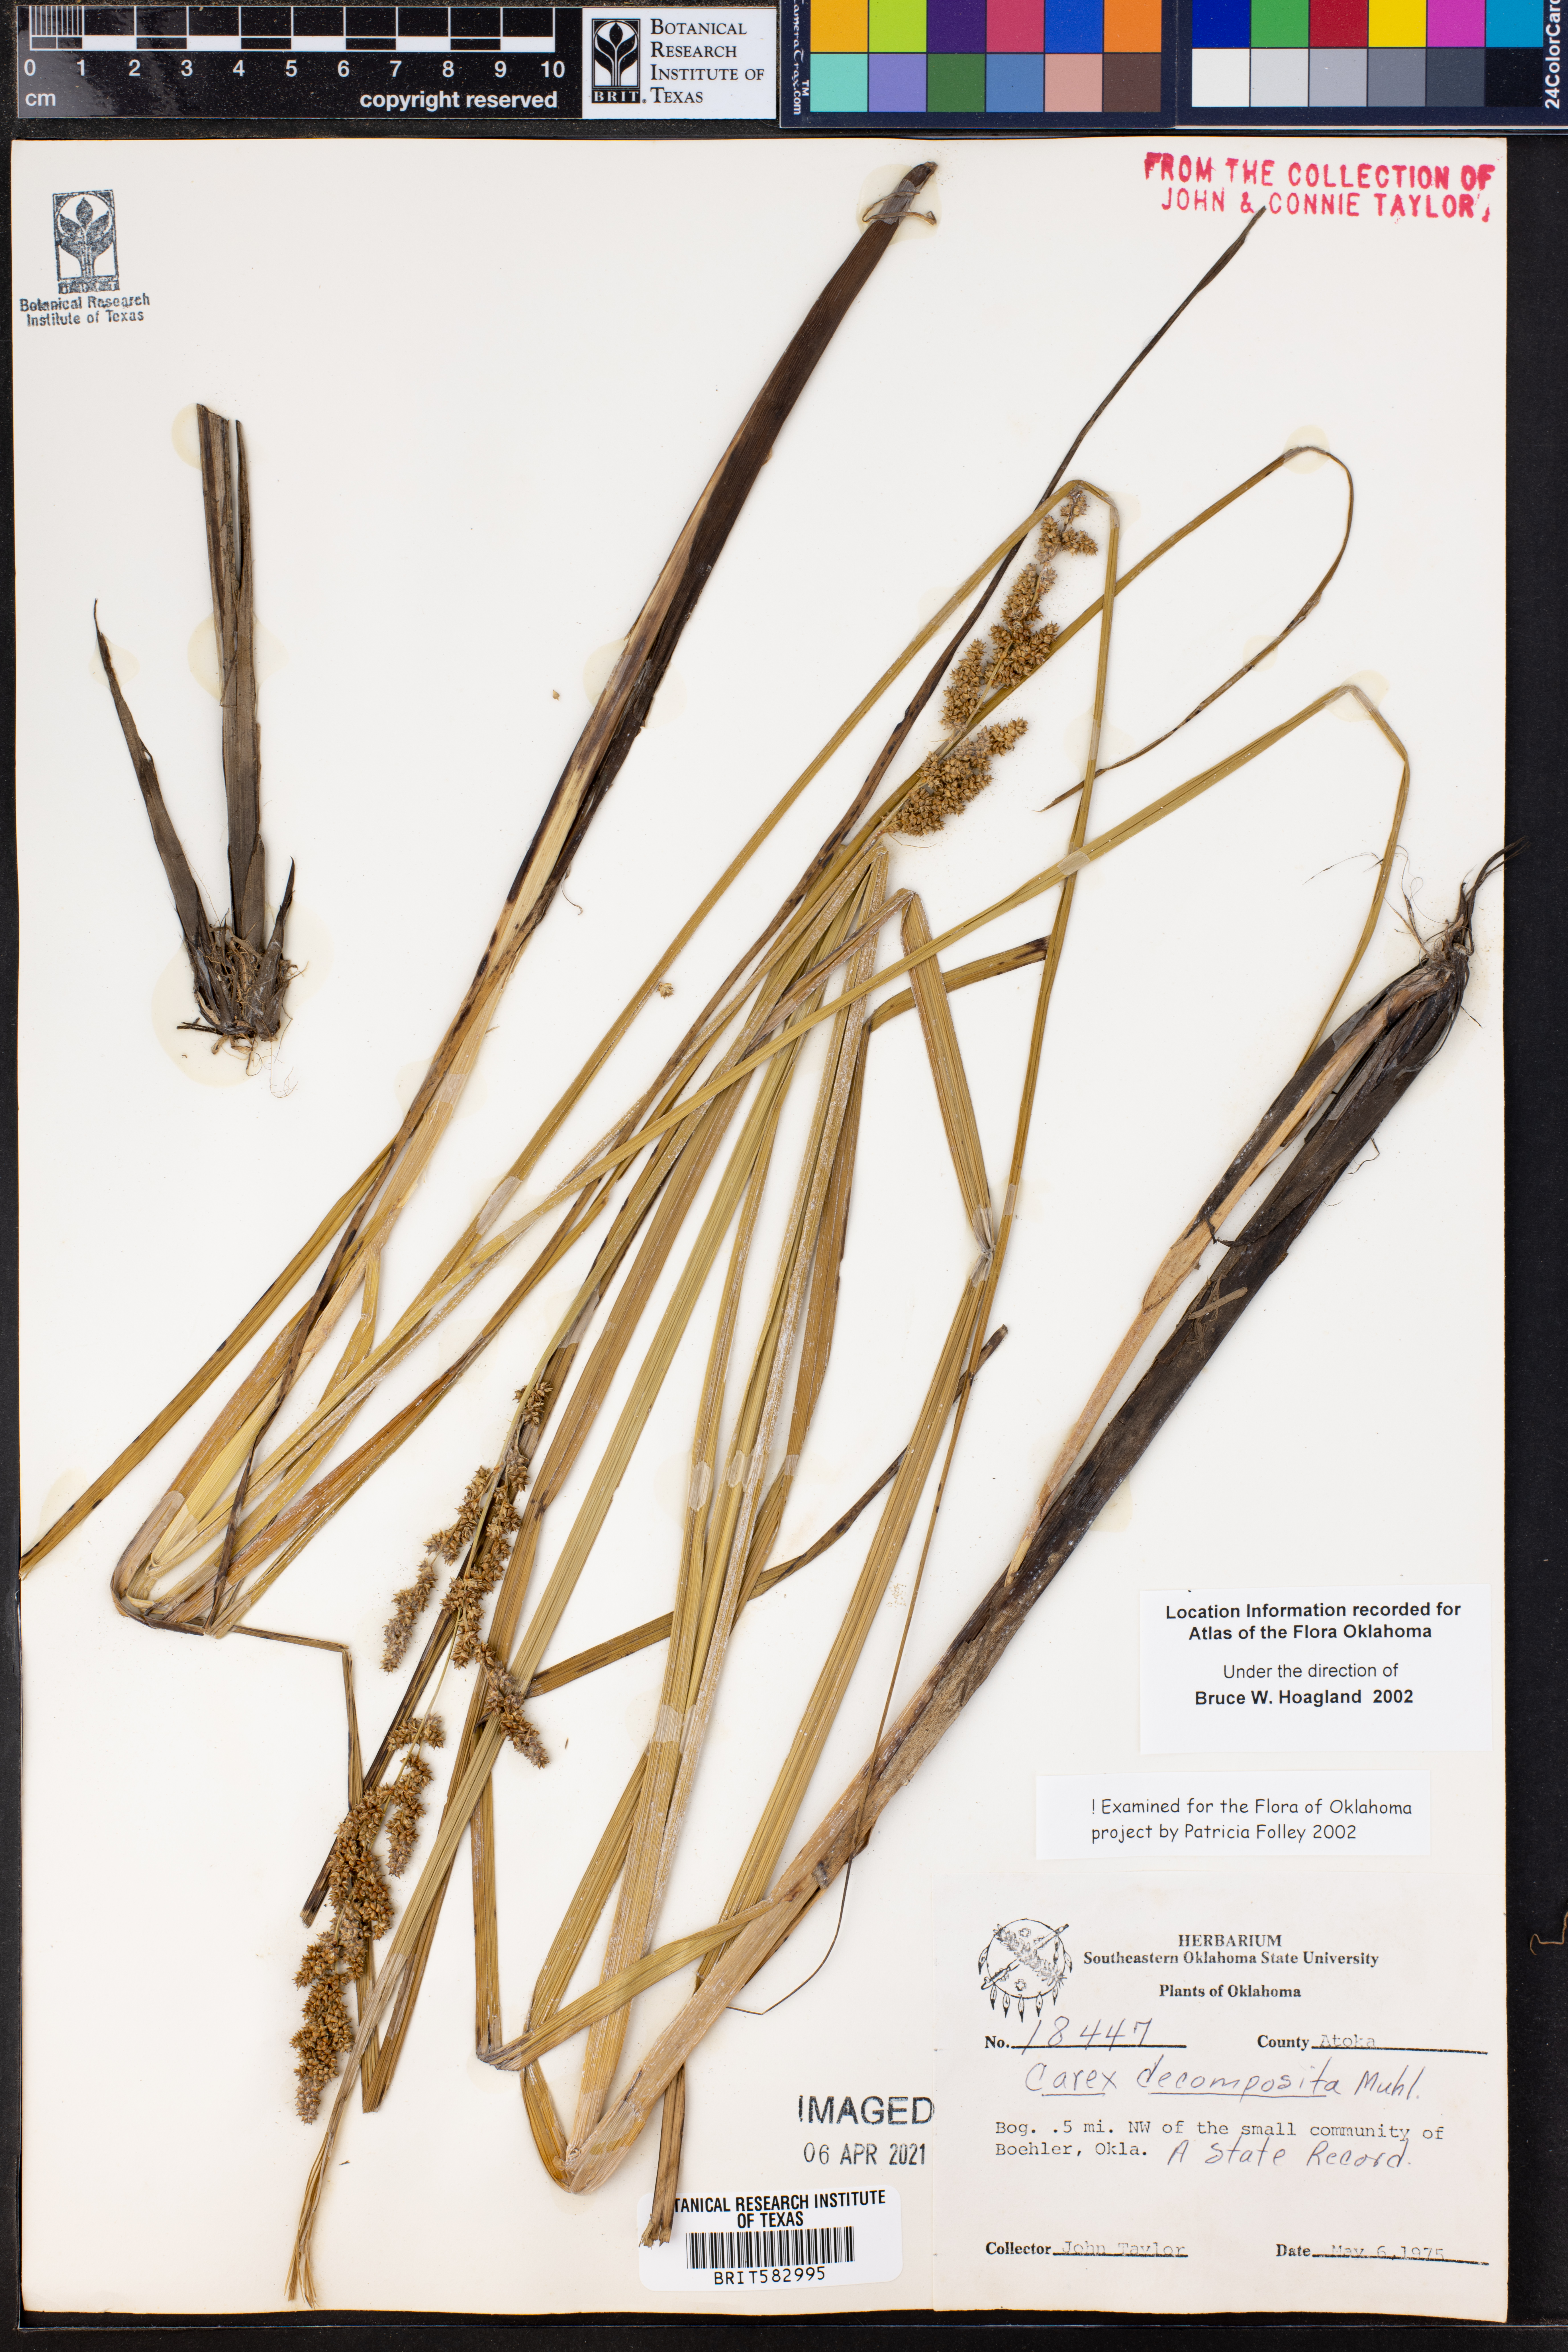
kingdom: Plantae
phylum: Tracheophyta
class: Liliopsida
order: Poales
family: Cyperaceae
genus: Carex
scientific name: Carex decomposita
